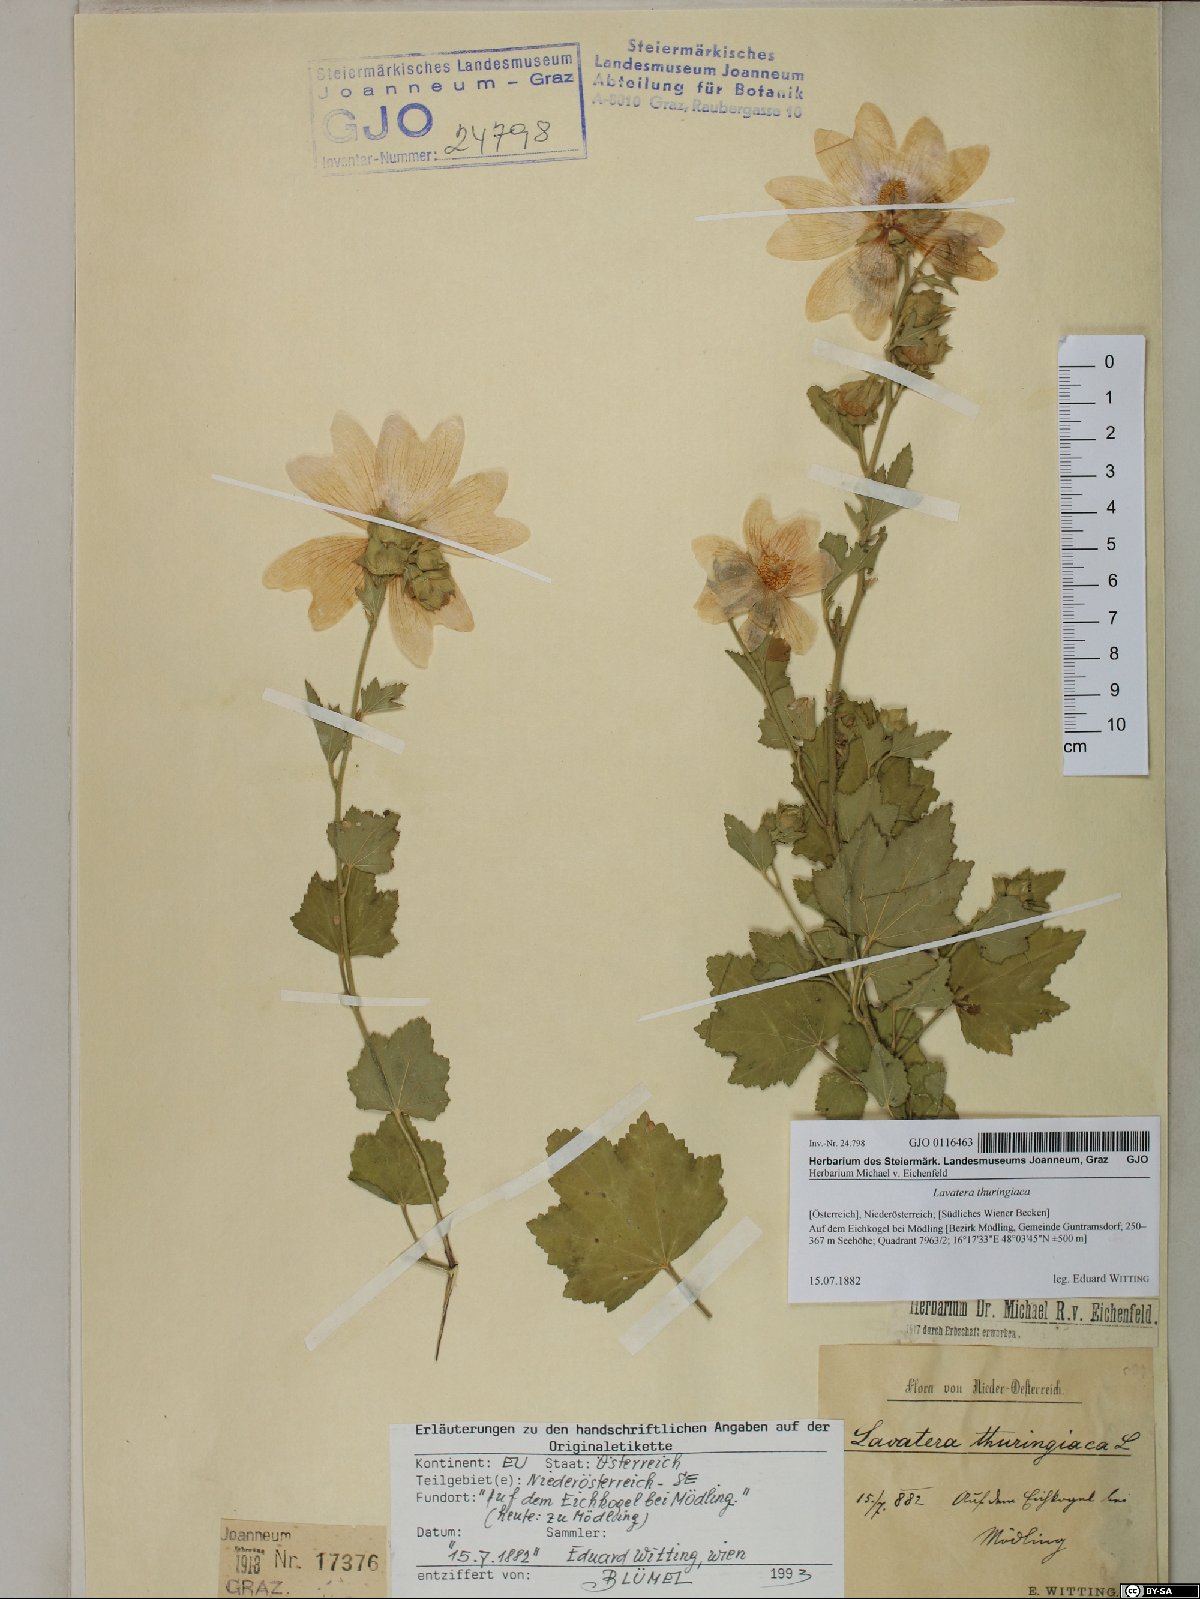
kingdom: Plantae
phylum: Tracheophyta
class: Magnoliopsida
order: Malvales
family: Malvaceae
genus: Malva
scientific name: Malva thuringiaca
